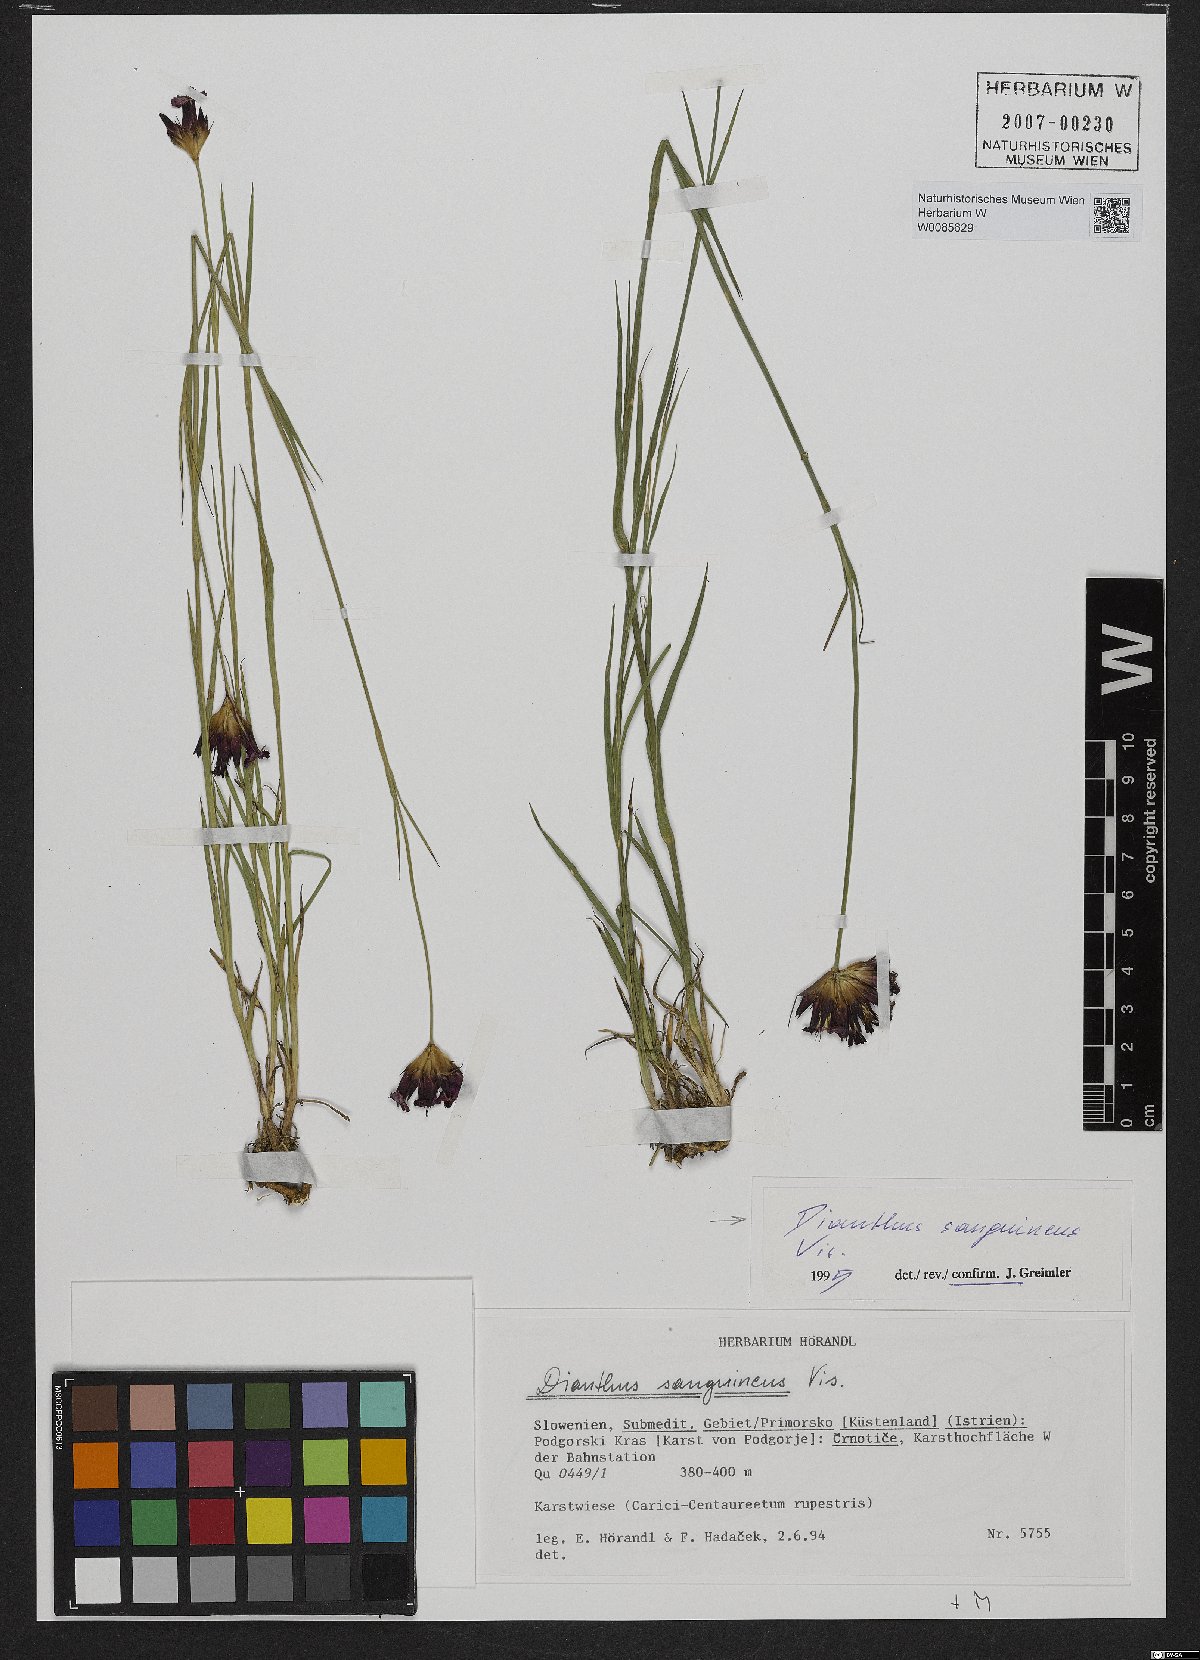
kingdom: Plantae
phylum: Tracheophyta
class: Magnoliopsida
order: Caryophyllales
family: Caryophyllaceae
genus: Dianthus
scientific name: Dianthus carthusianorum
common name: Carthusian pink
